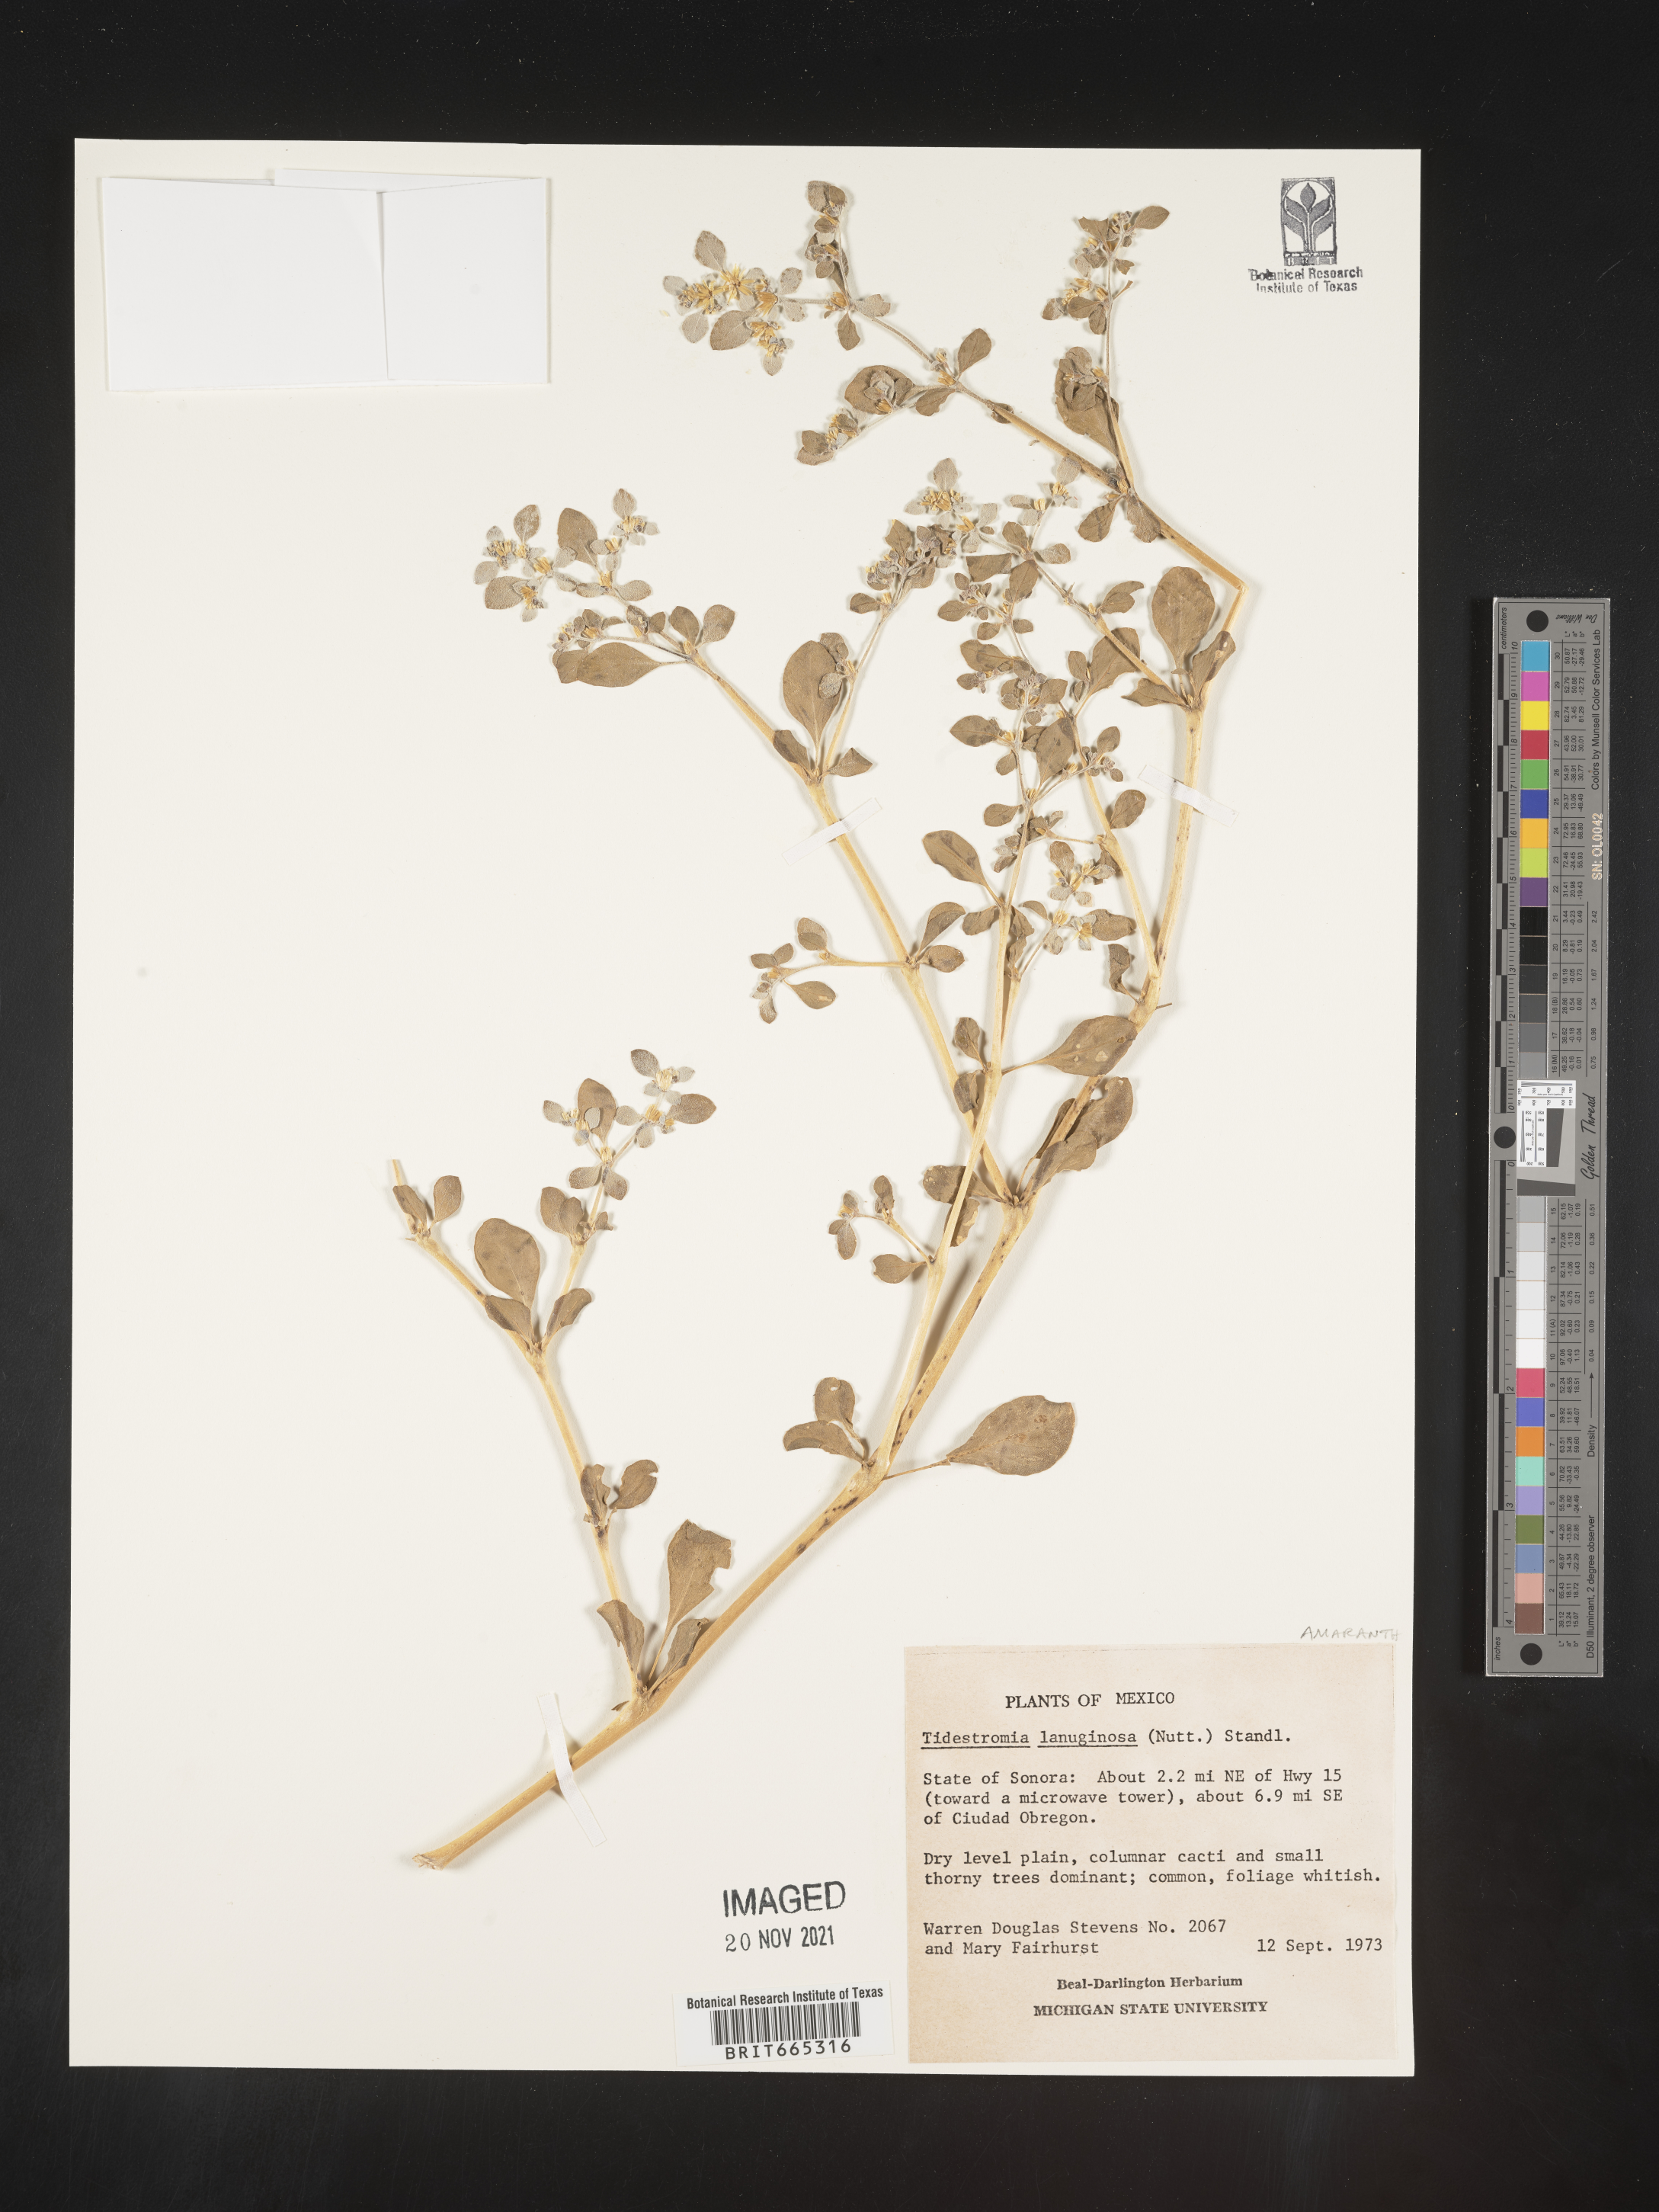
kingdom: Plantae
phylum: Tracheophyta
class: Magnoliopsida
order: Caryophyllales
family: Amaranthaceae
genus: Tidestromia
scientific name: Tidestromia
